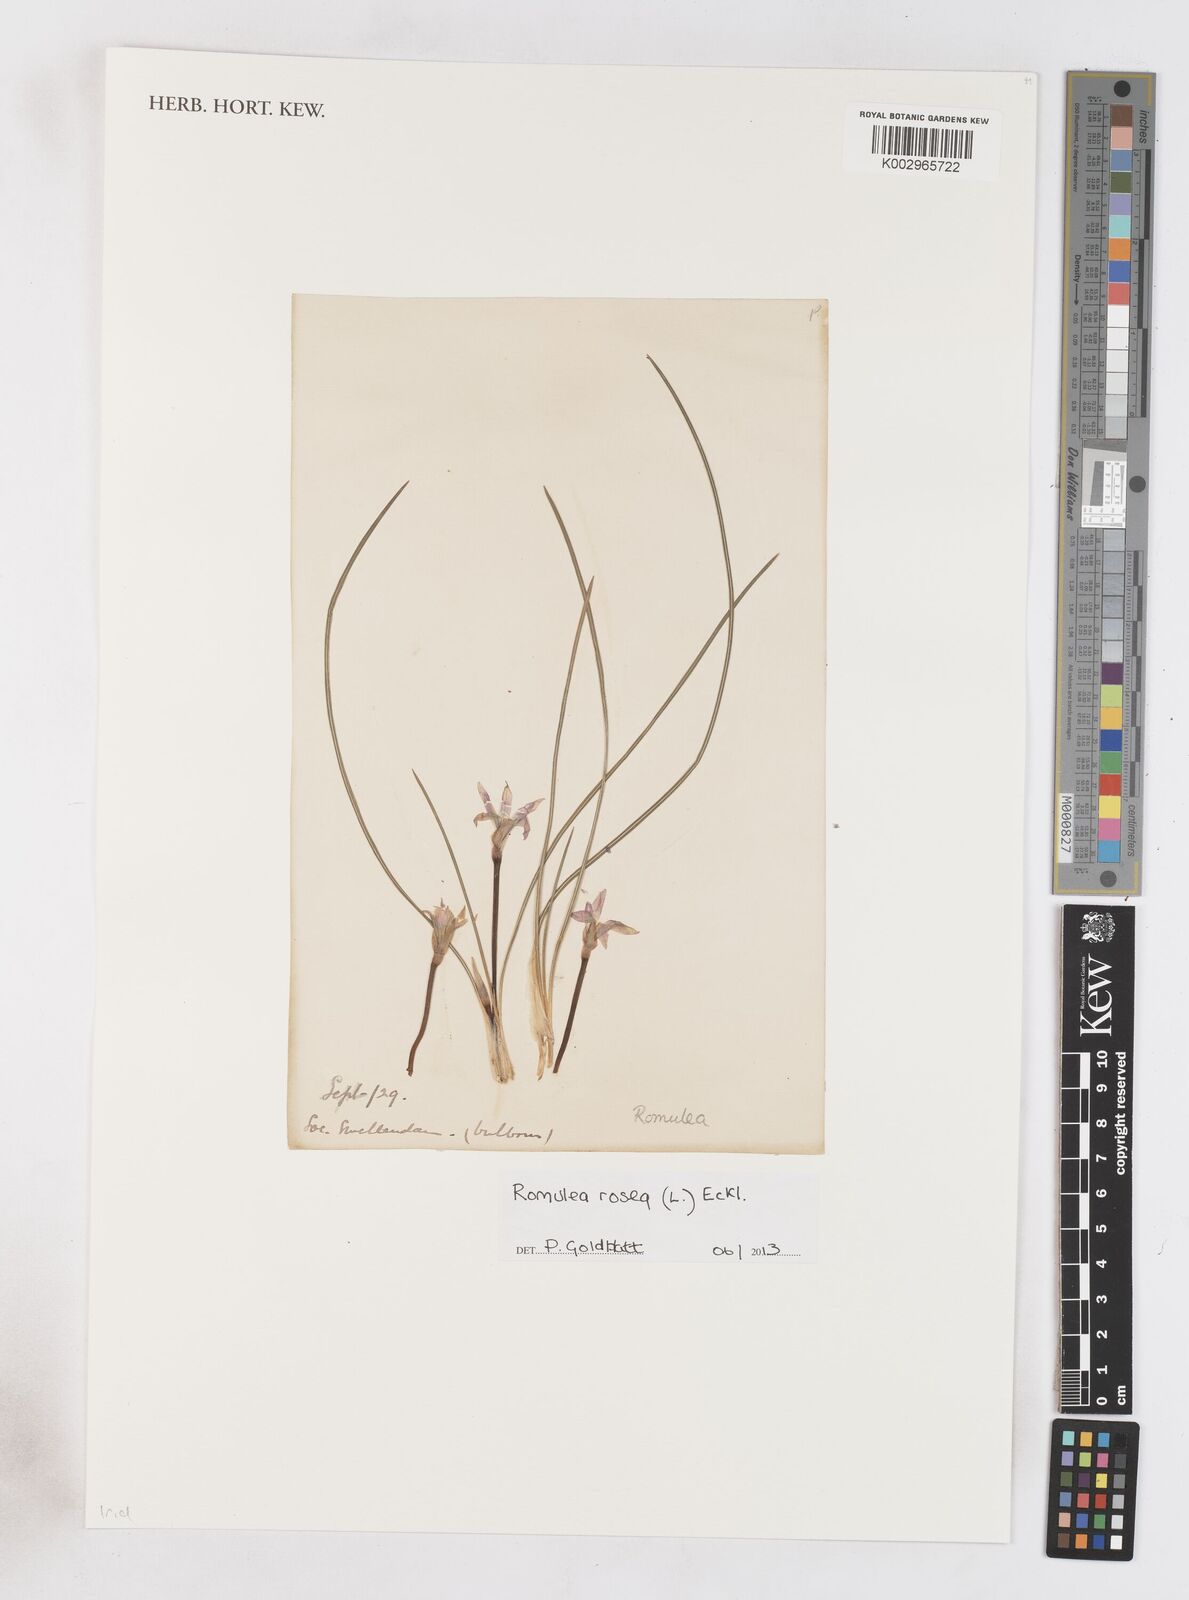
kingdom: Plantae
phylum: Tracheophyta
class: Liliopsida
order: Asparagales
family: Iridaceae
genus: Romulea
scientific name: Romulea rosea
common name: Oniongrass
